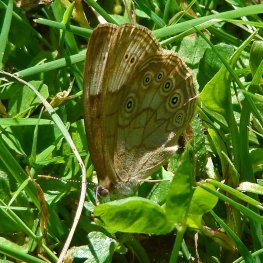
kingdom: Animalia
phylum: Arthropoda
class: Insecta
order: Lepidoptera
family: Nymphalidae
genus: Lethe
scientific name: Lethe eurydice
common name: Eyed Brown
